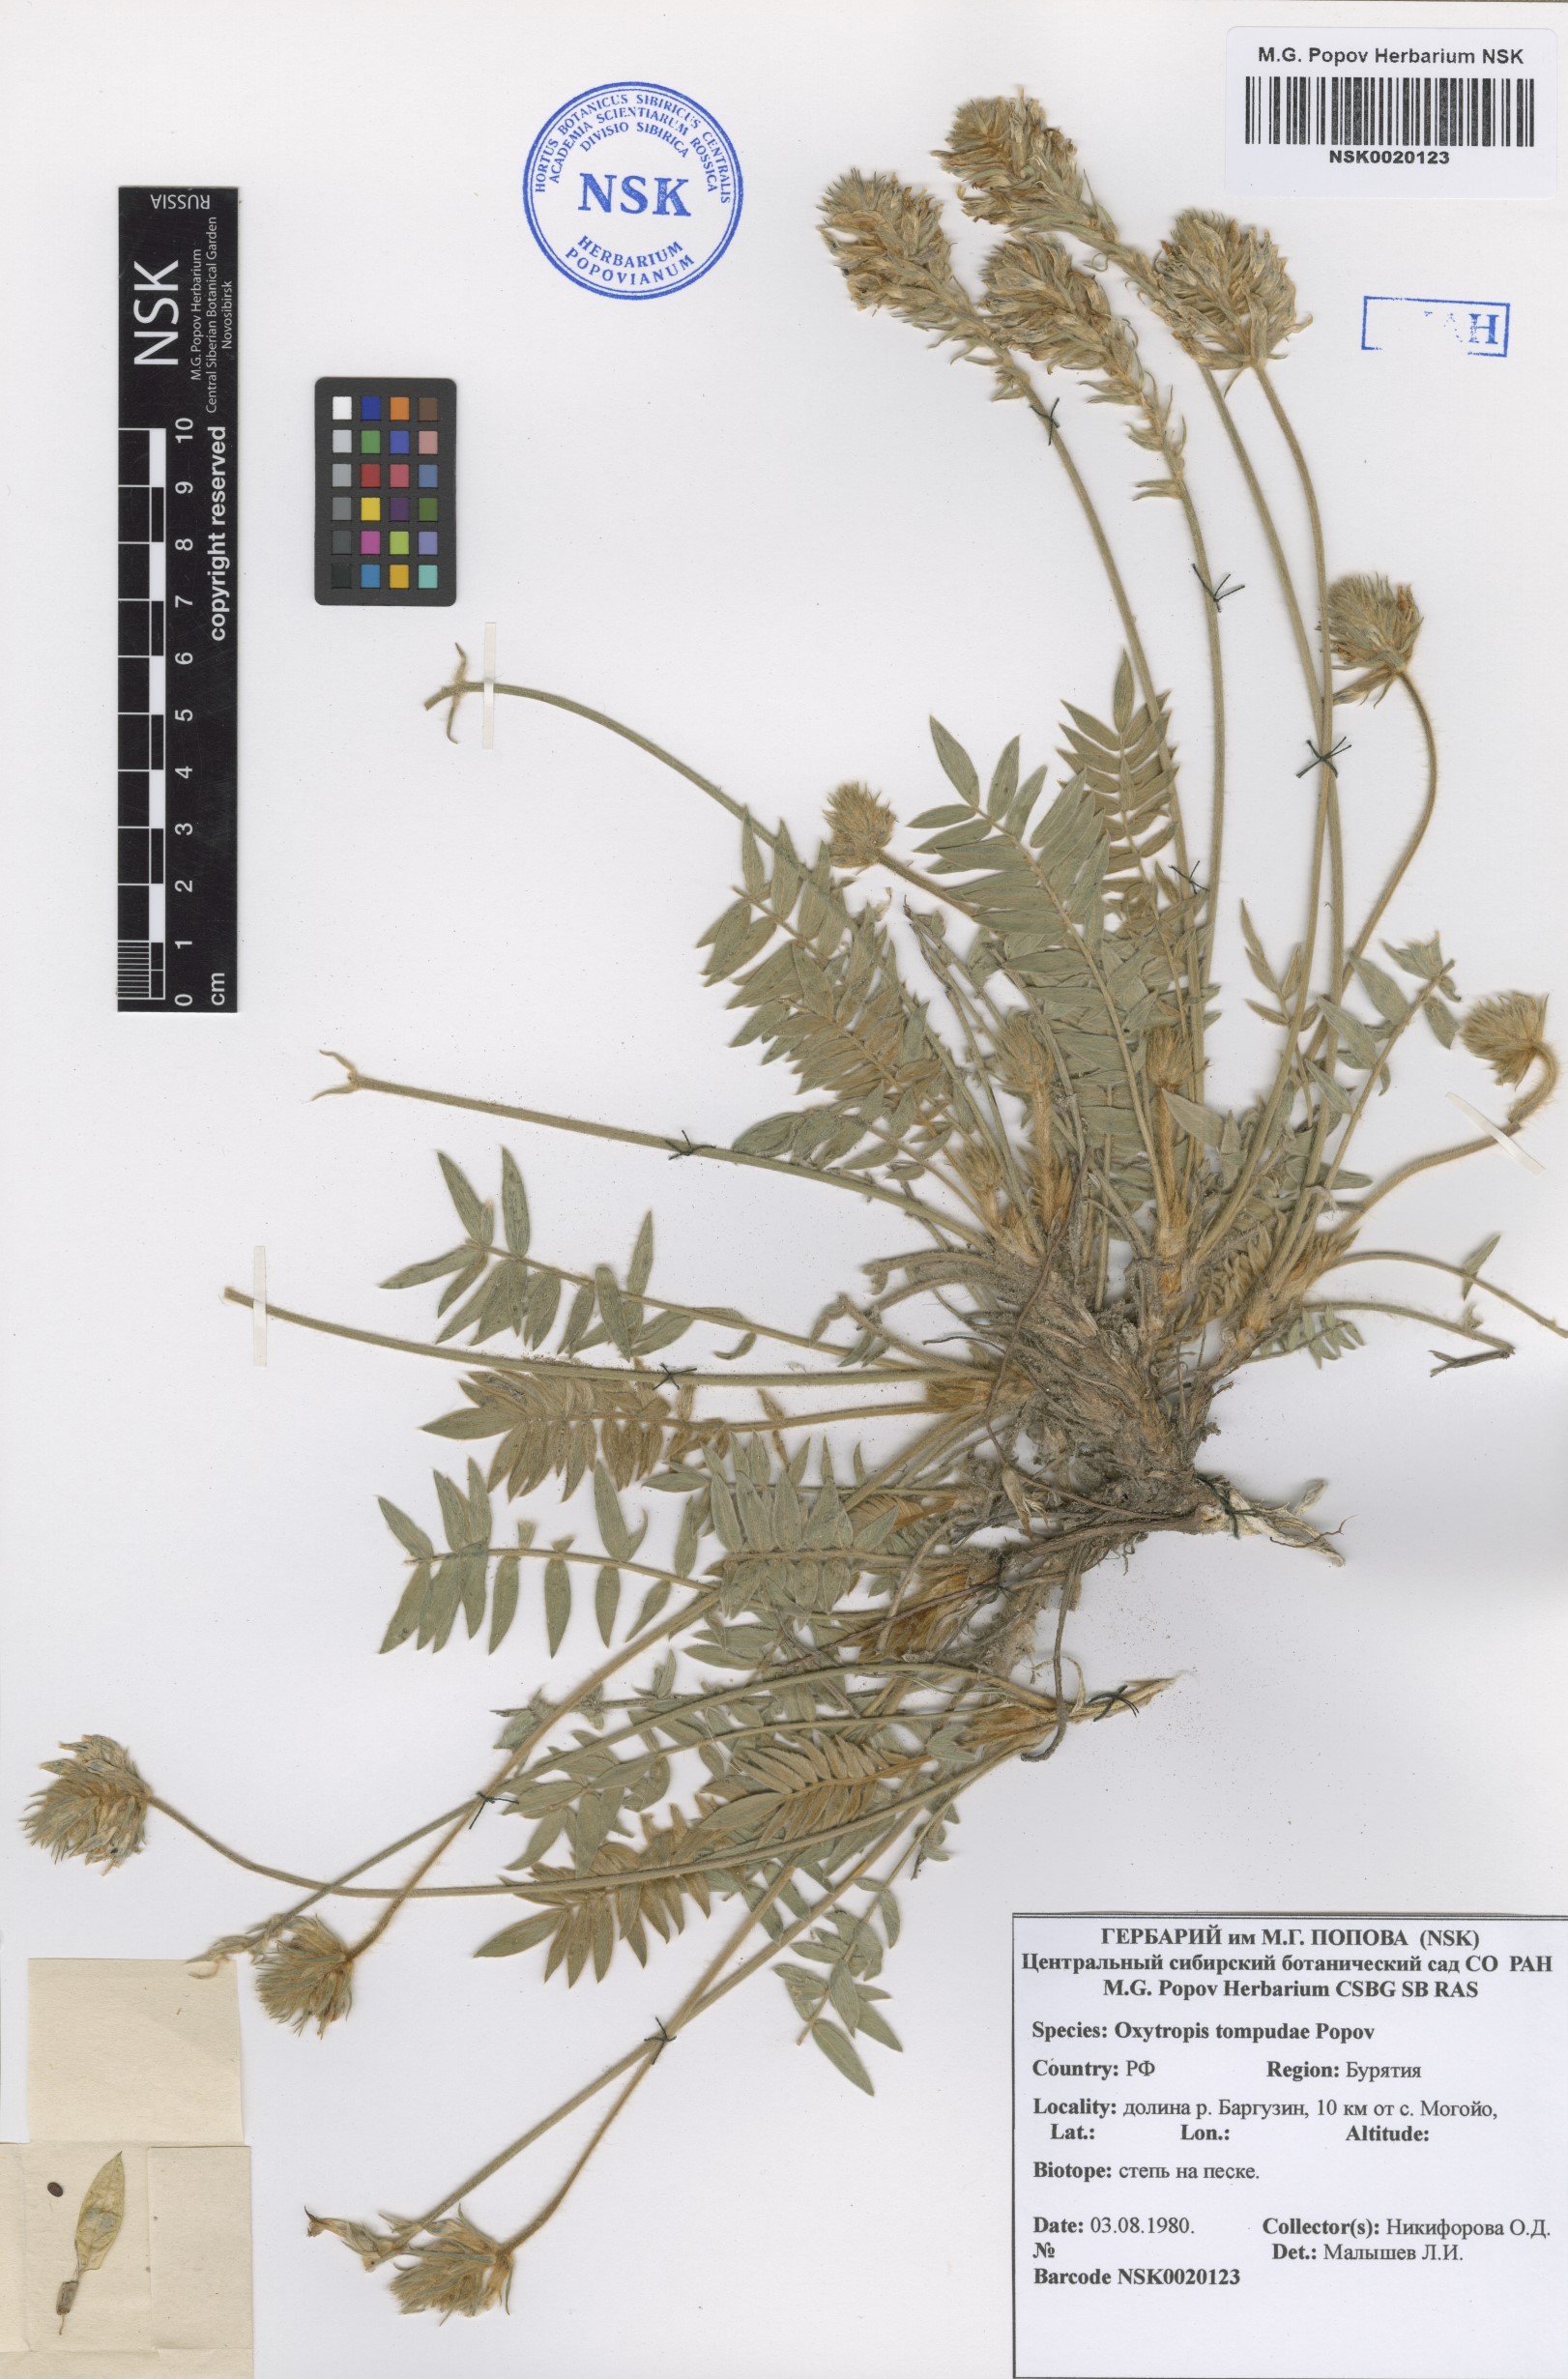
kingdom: Plantae
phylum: Tracheophyta
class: Magnoliopsida
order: Fabales
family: Fabaceae
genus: Oxytropis
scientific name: Oxytropis tompudae
